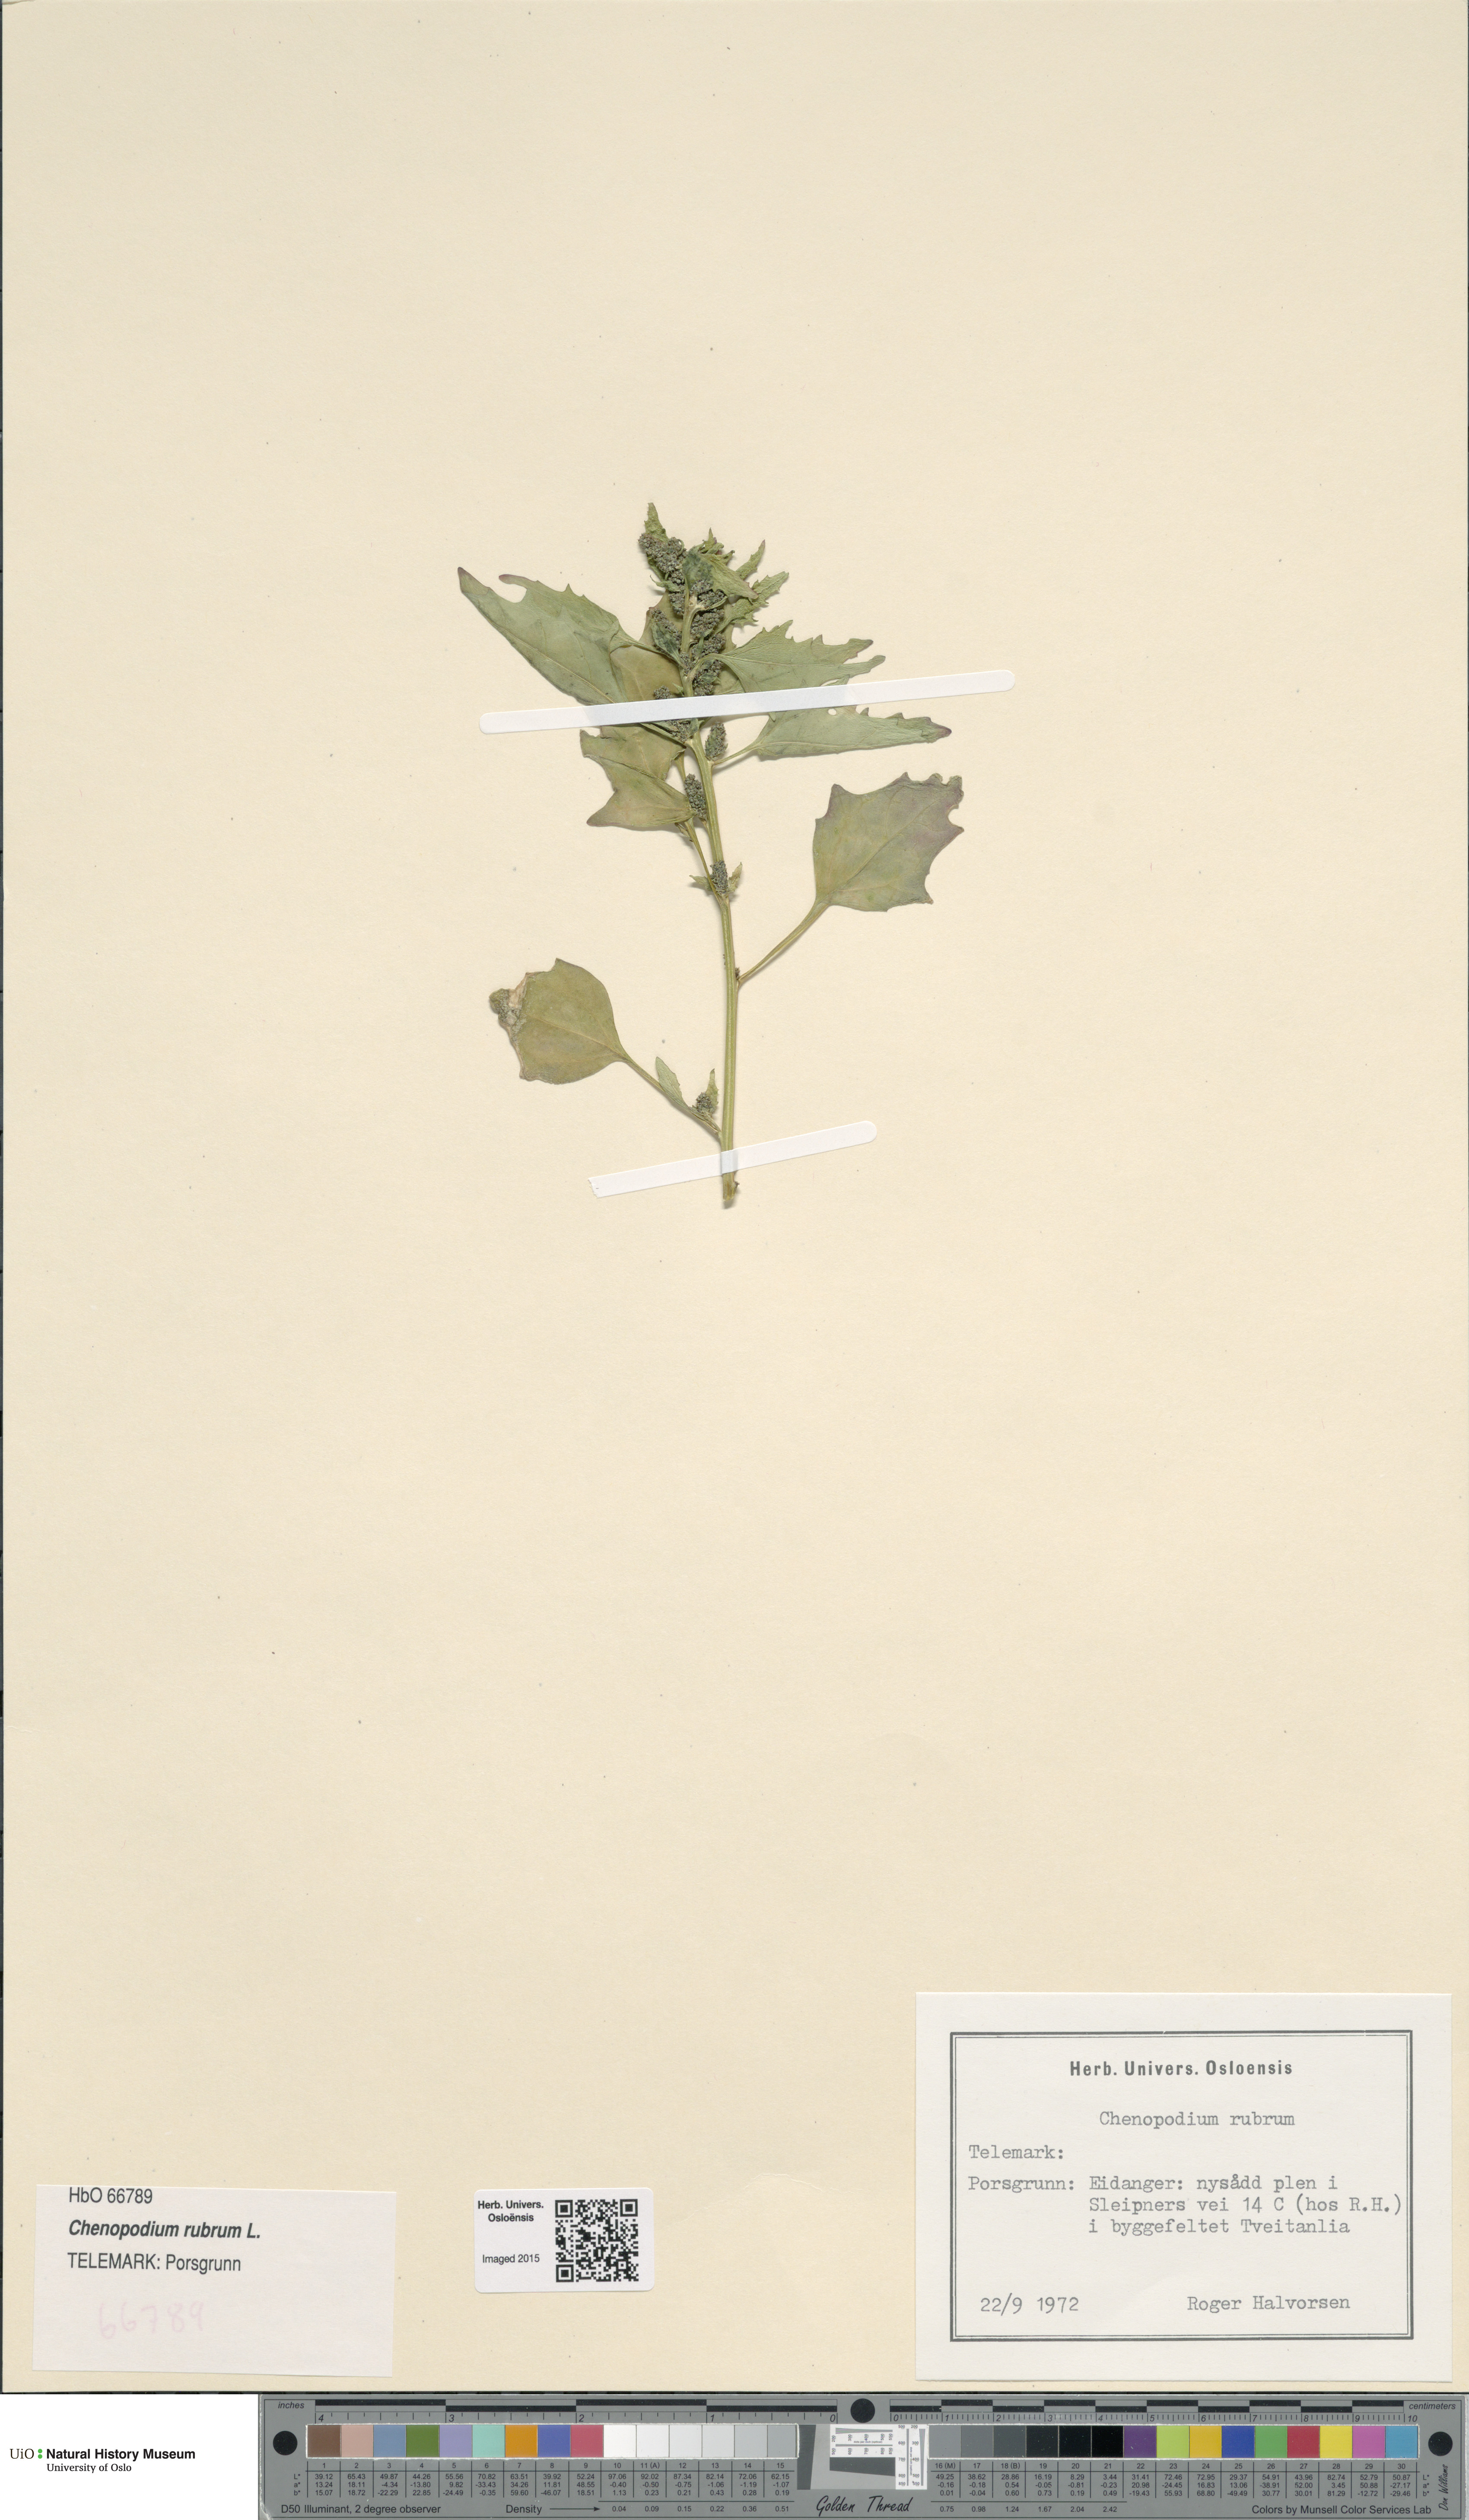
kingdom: Plantae
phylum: Tracheophyta
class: Magnoliopsida
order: Caryophyllales
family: Amaranthaceae
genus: Oxybasis
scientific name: Oxybasis rubra
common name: Red goosefoot
